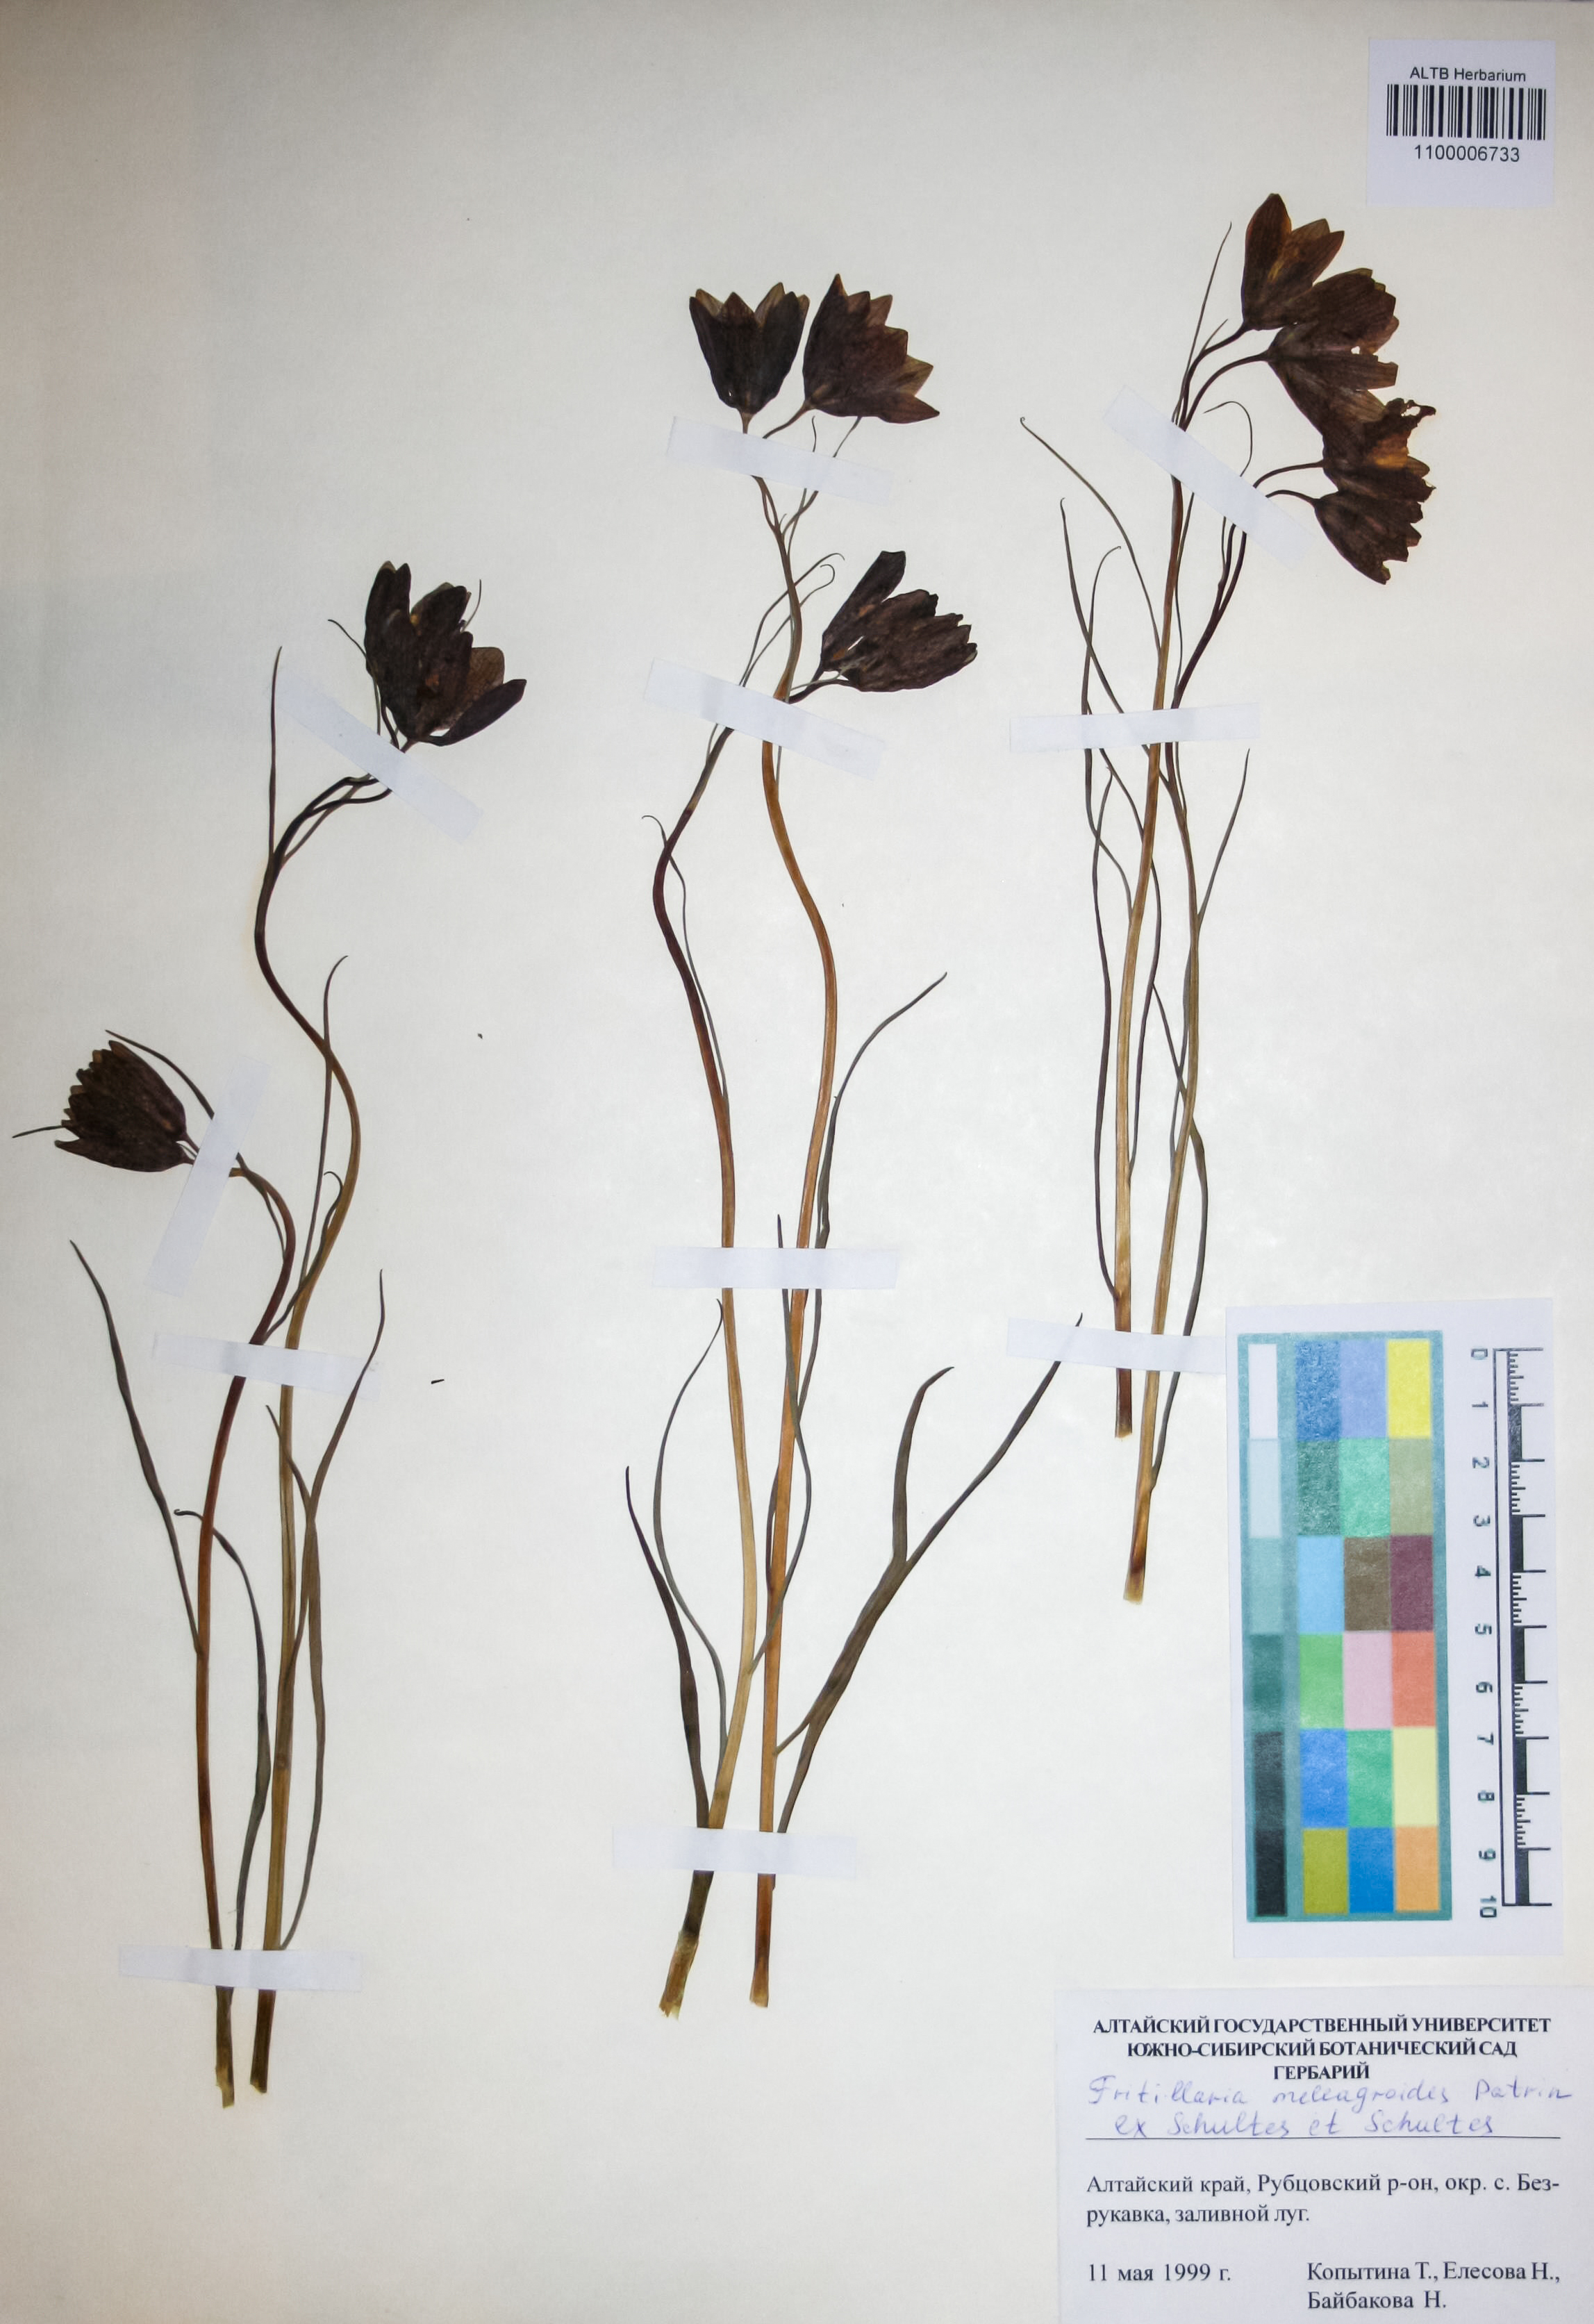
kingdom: Plantae
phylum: Tracheophyta
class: Liliopsida
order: Liliales
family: Liliaceae
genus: Fritillaria
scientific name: Fritillaria meleagroides
